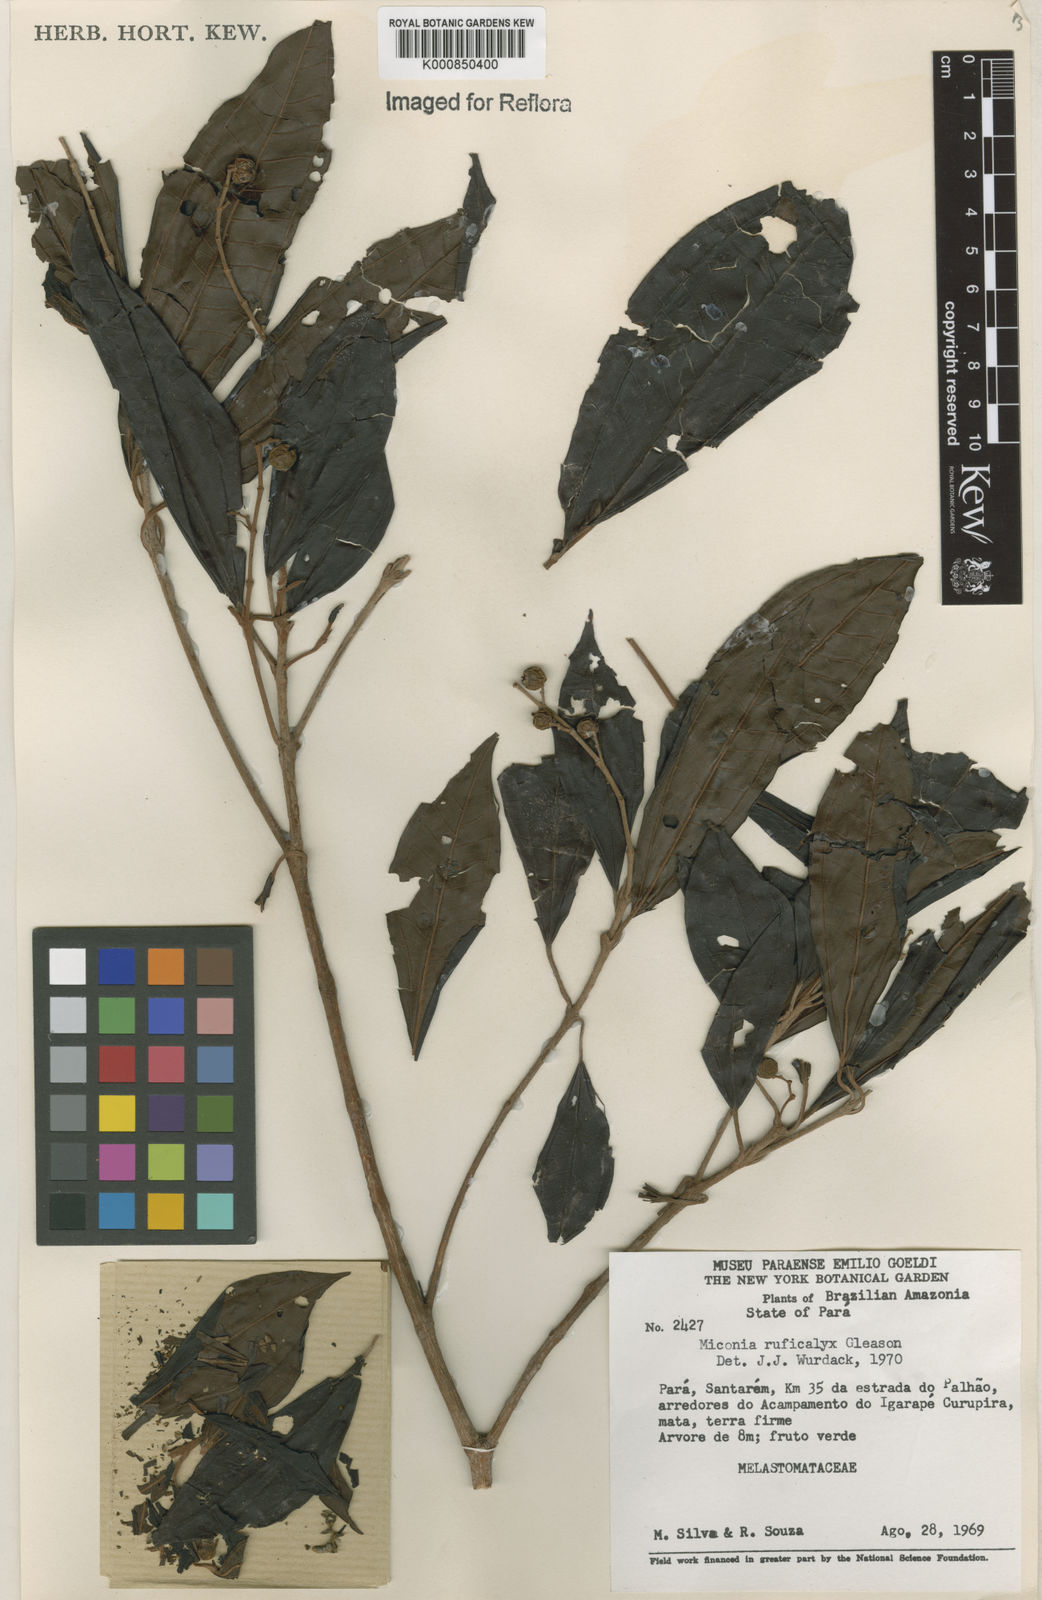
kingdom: Plantae
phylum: Tracheophyta
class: Magnoliopsida
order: Myrtales
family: Melastomataceae
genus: Miconia
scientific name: Miconia ruficalyx
